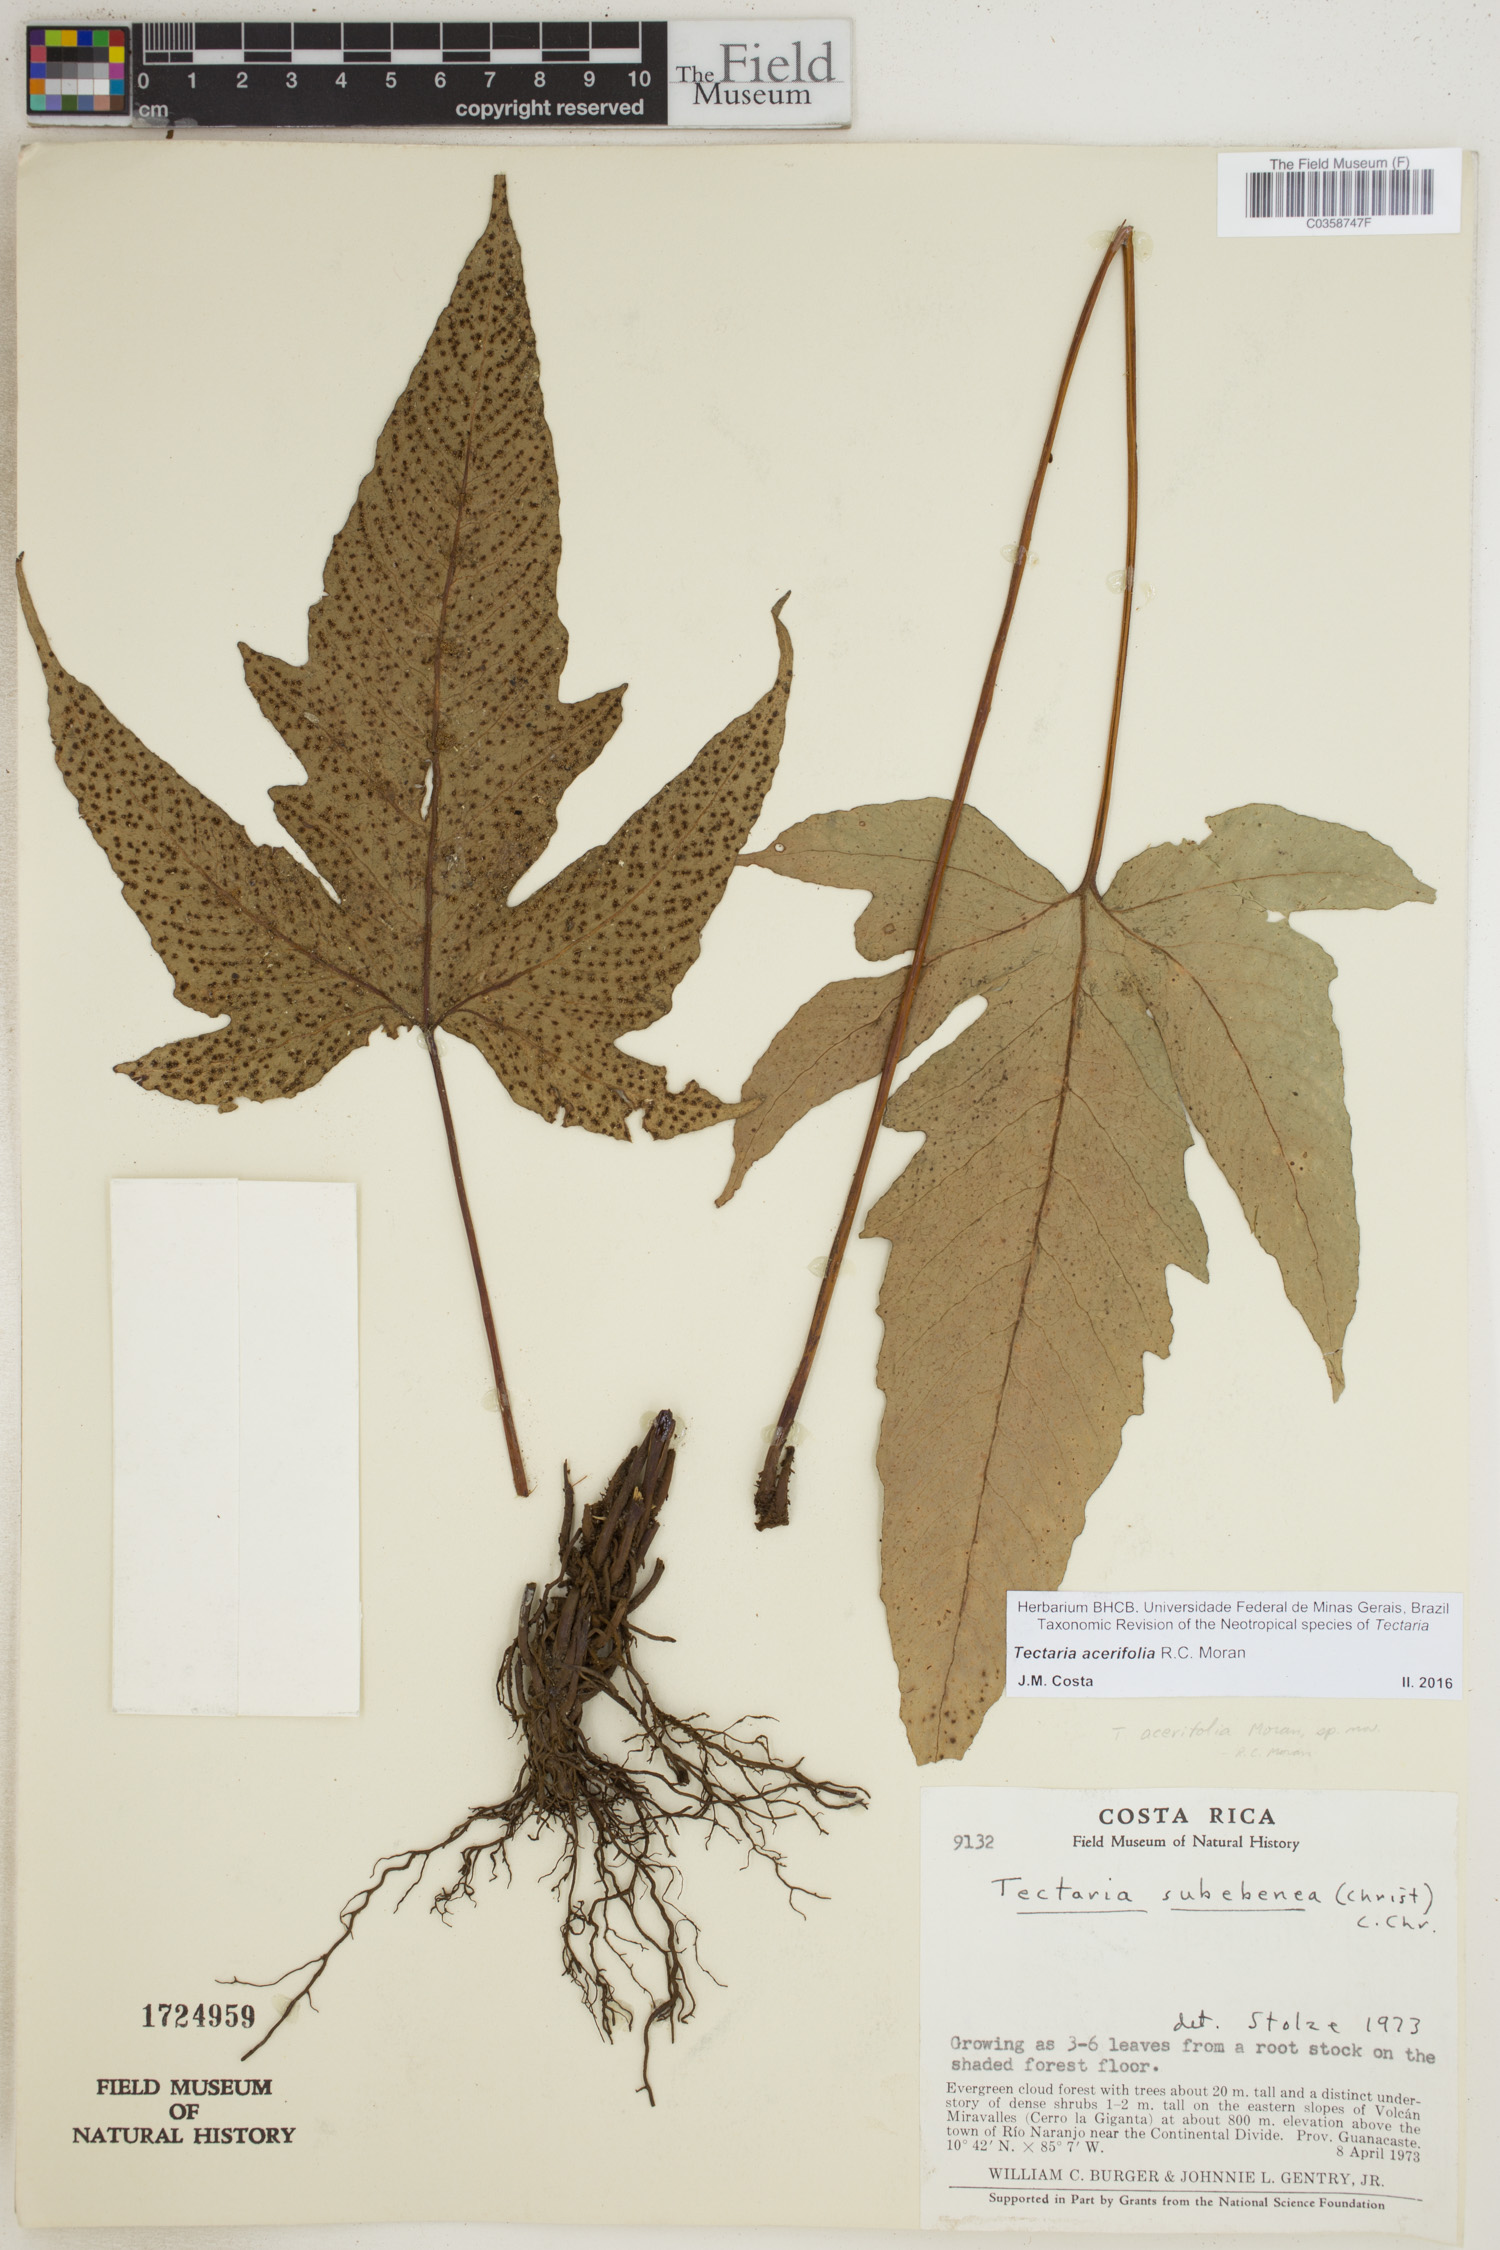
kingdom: Plantae
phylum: Tracheophyta
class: Polypodiopsida
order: Polypodiales
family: Tectariaceae
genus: Tectaria
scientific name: Tectaria acerifolia
